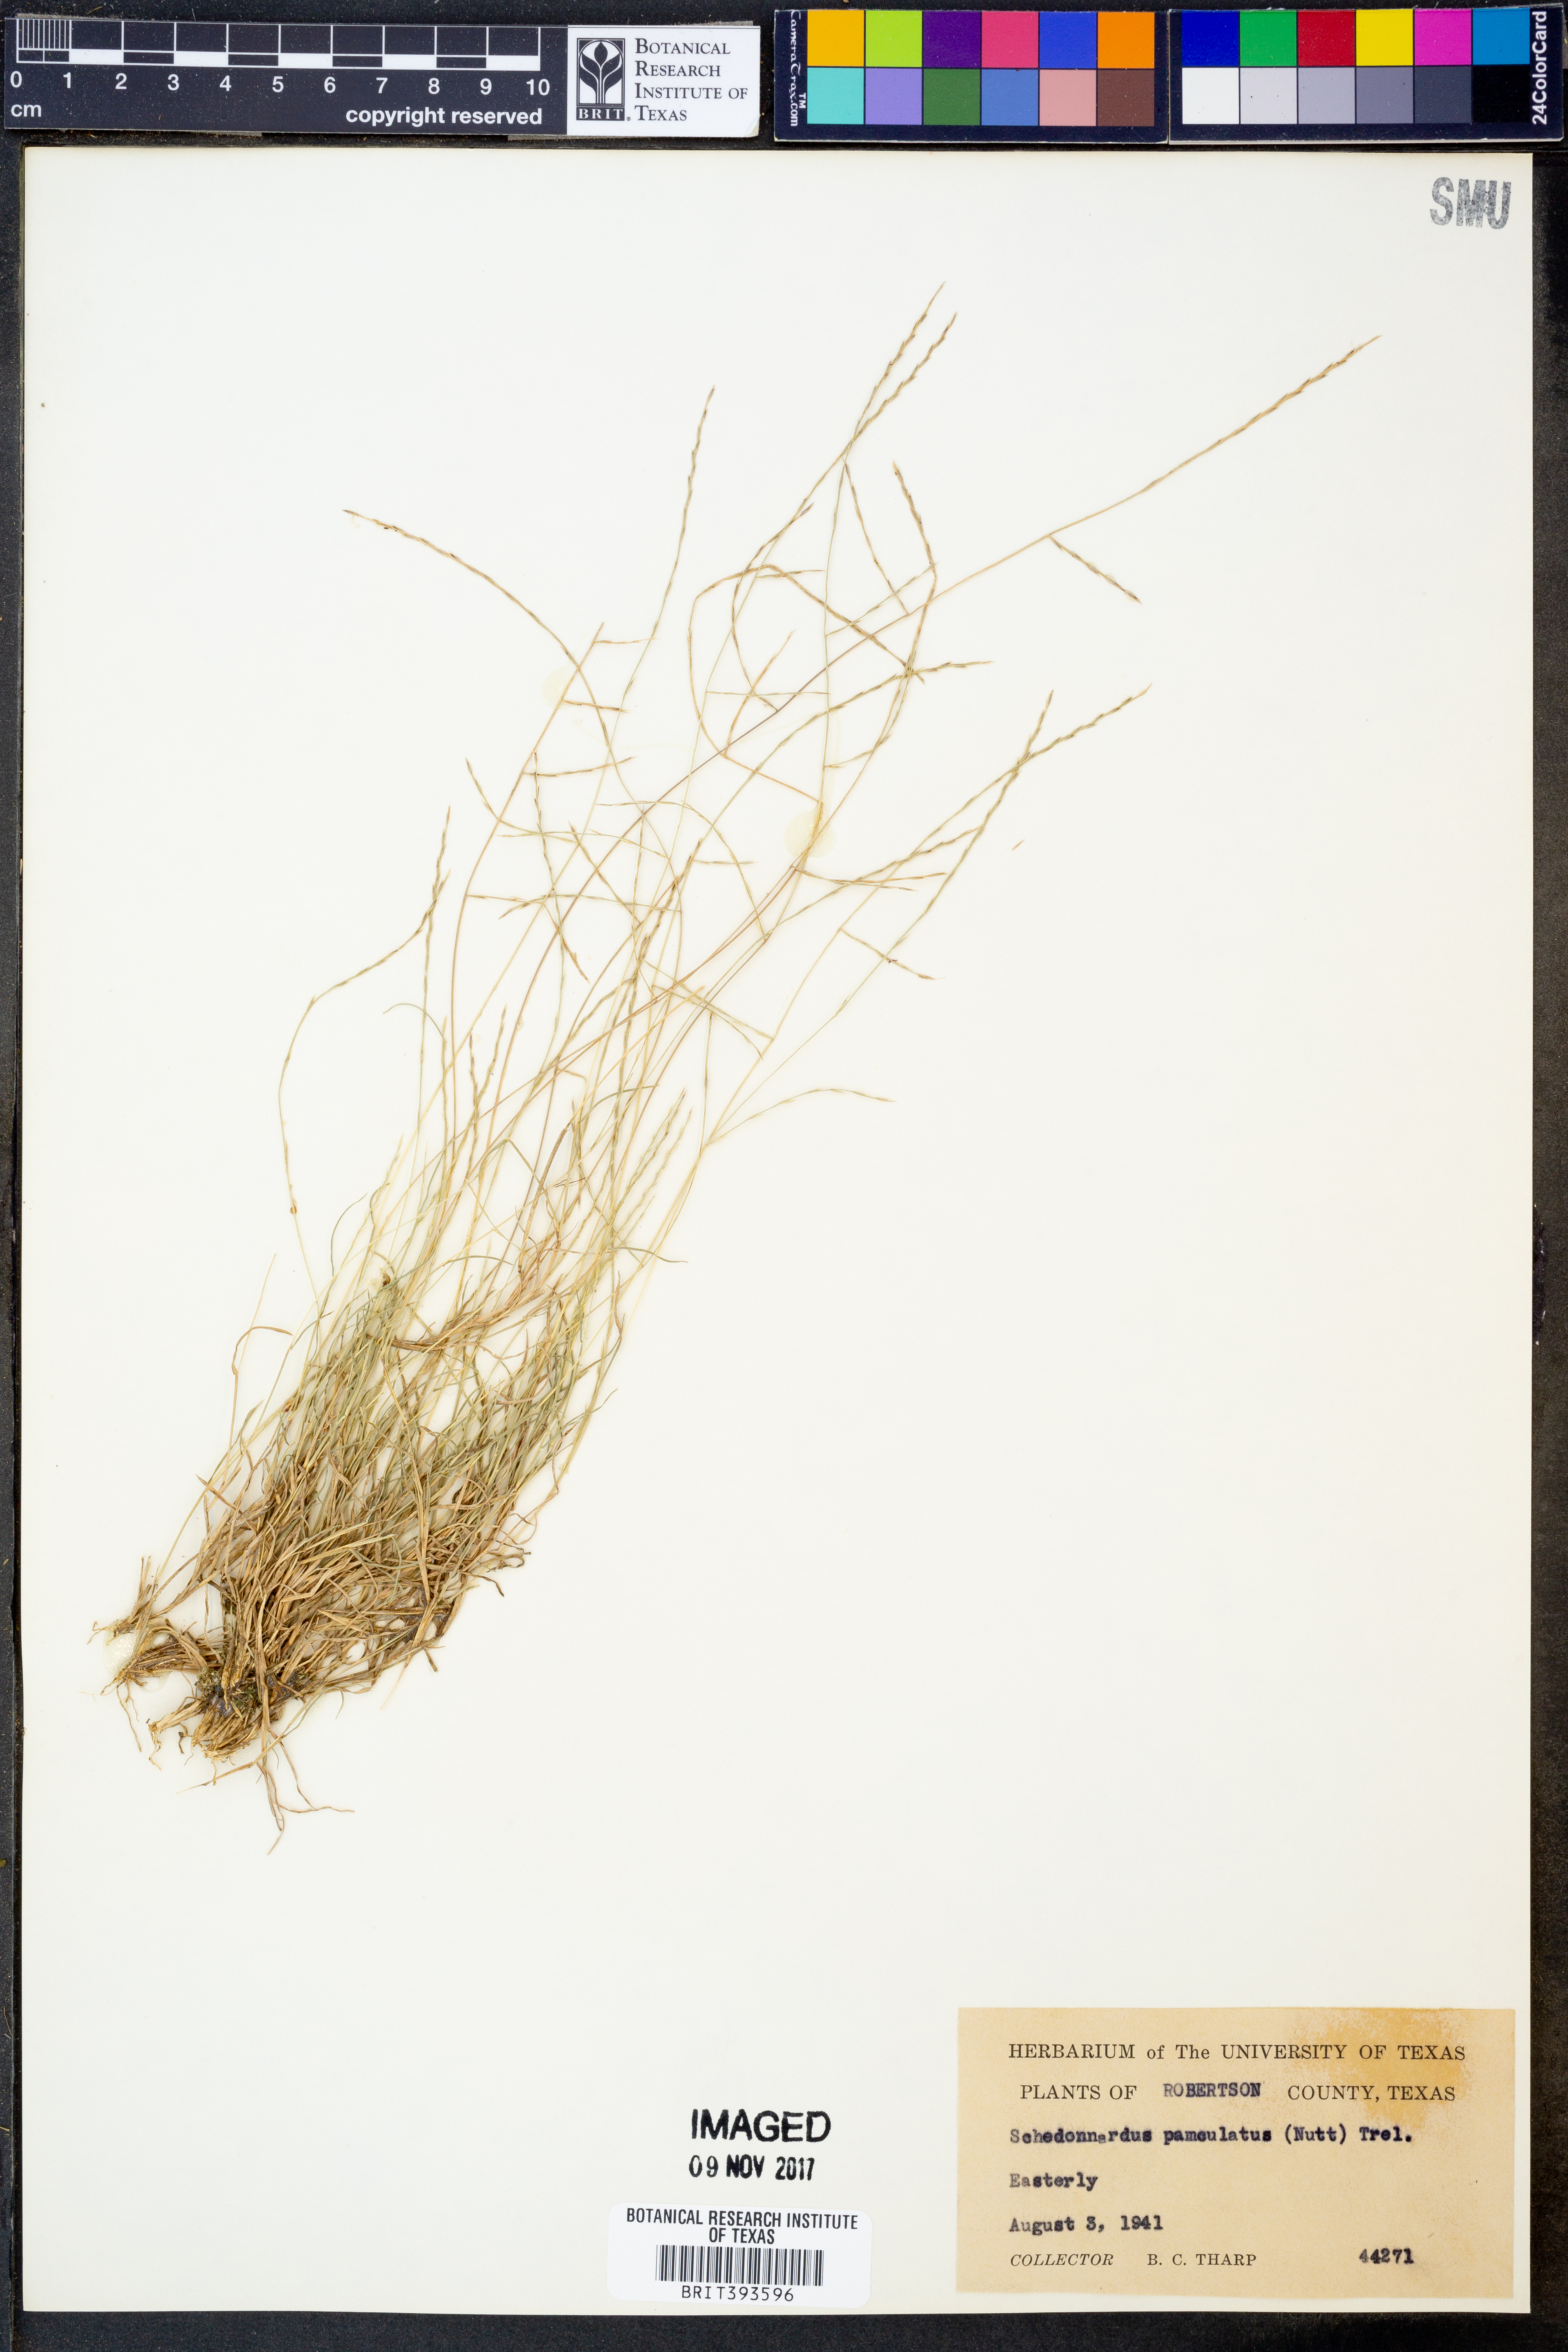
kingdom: Plantae
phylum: Tracheophyta
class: Liliopsida
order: Poales
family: Poaceae
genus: Muhlenbergia
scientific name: Muhlenbergia paniculata
